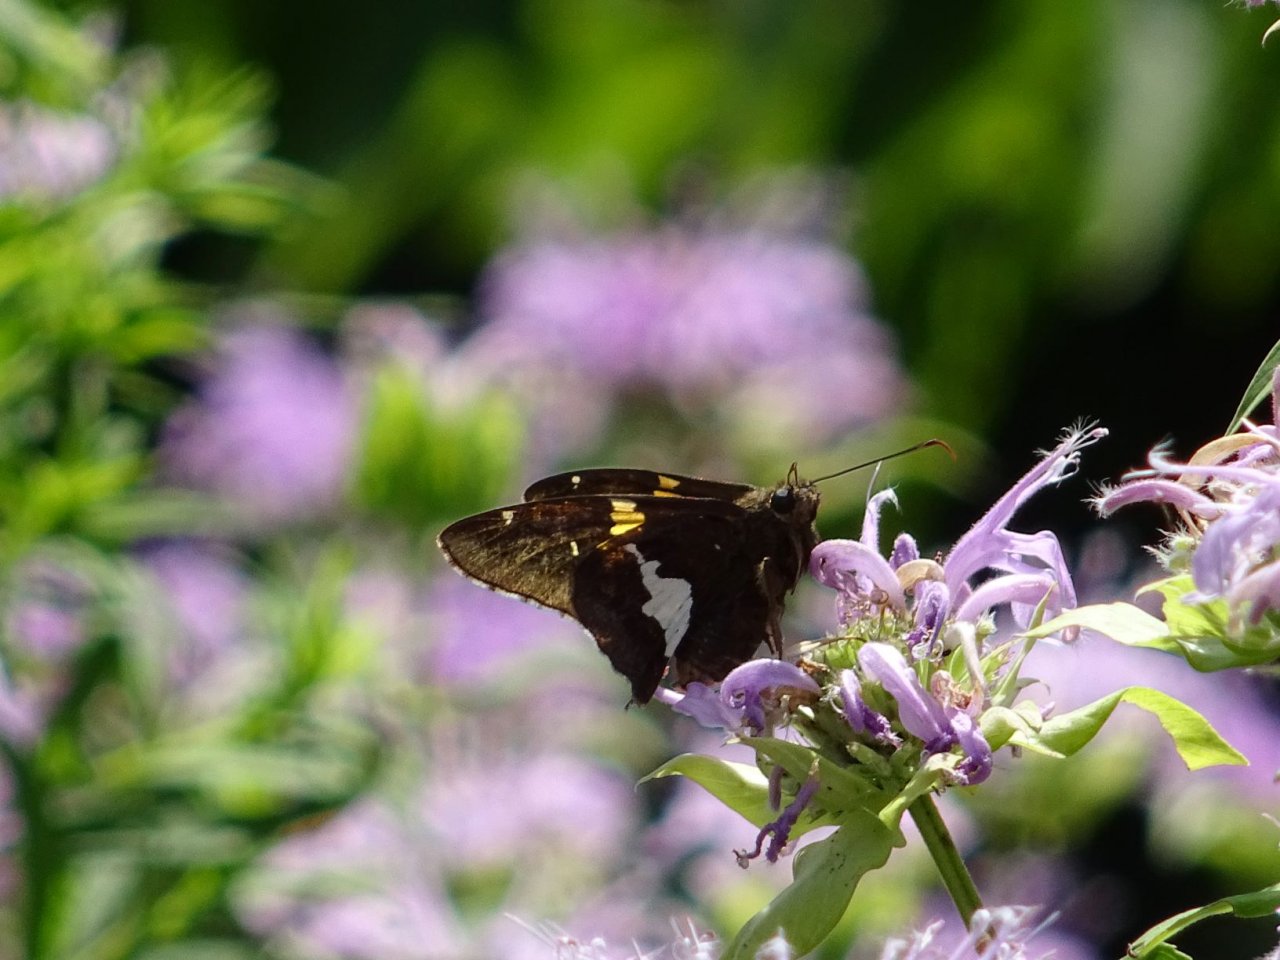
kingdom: Animalia
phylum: Arthropoda
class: Insecta
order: Lepidoptera
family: Hesperiidae
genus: Epargyreus
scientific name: Epargyreus clarus
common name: Silver-spotted Skipper
